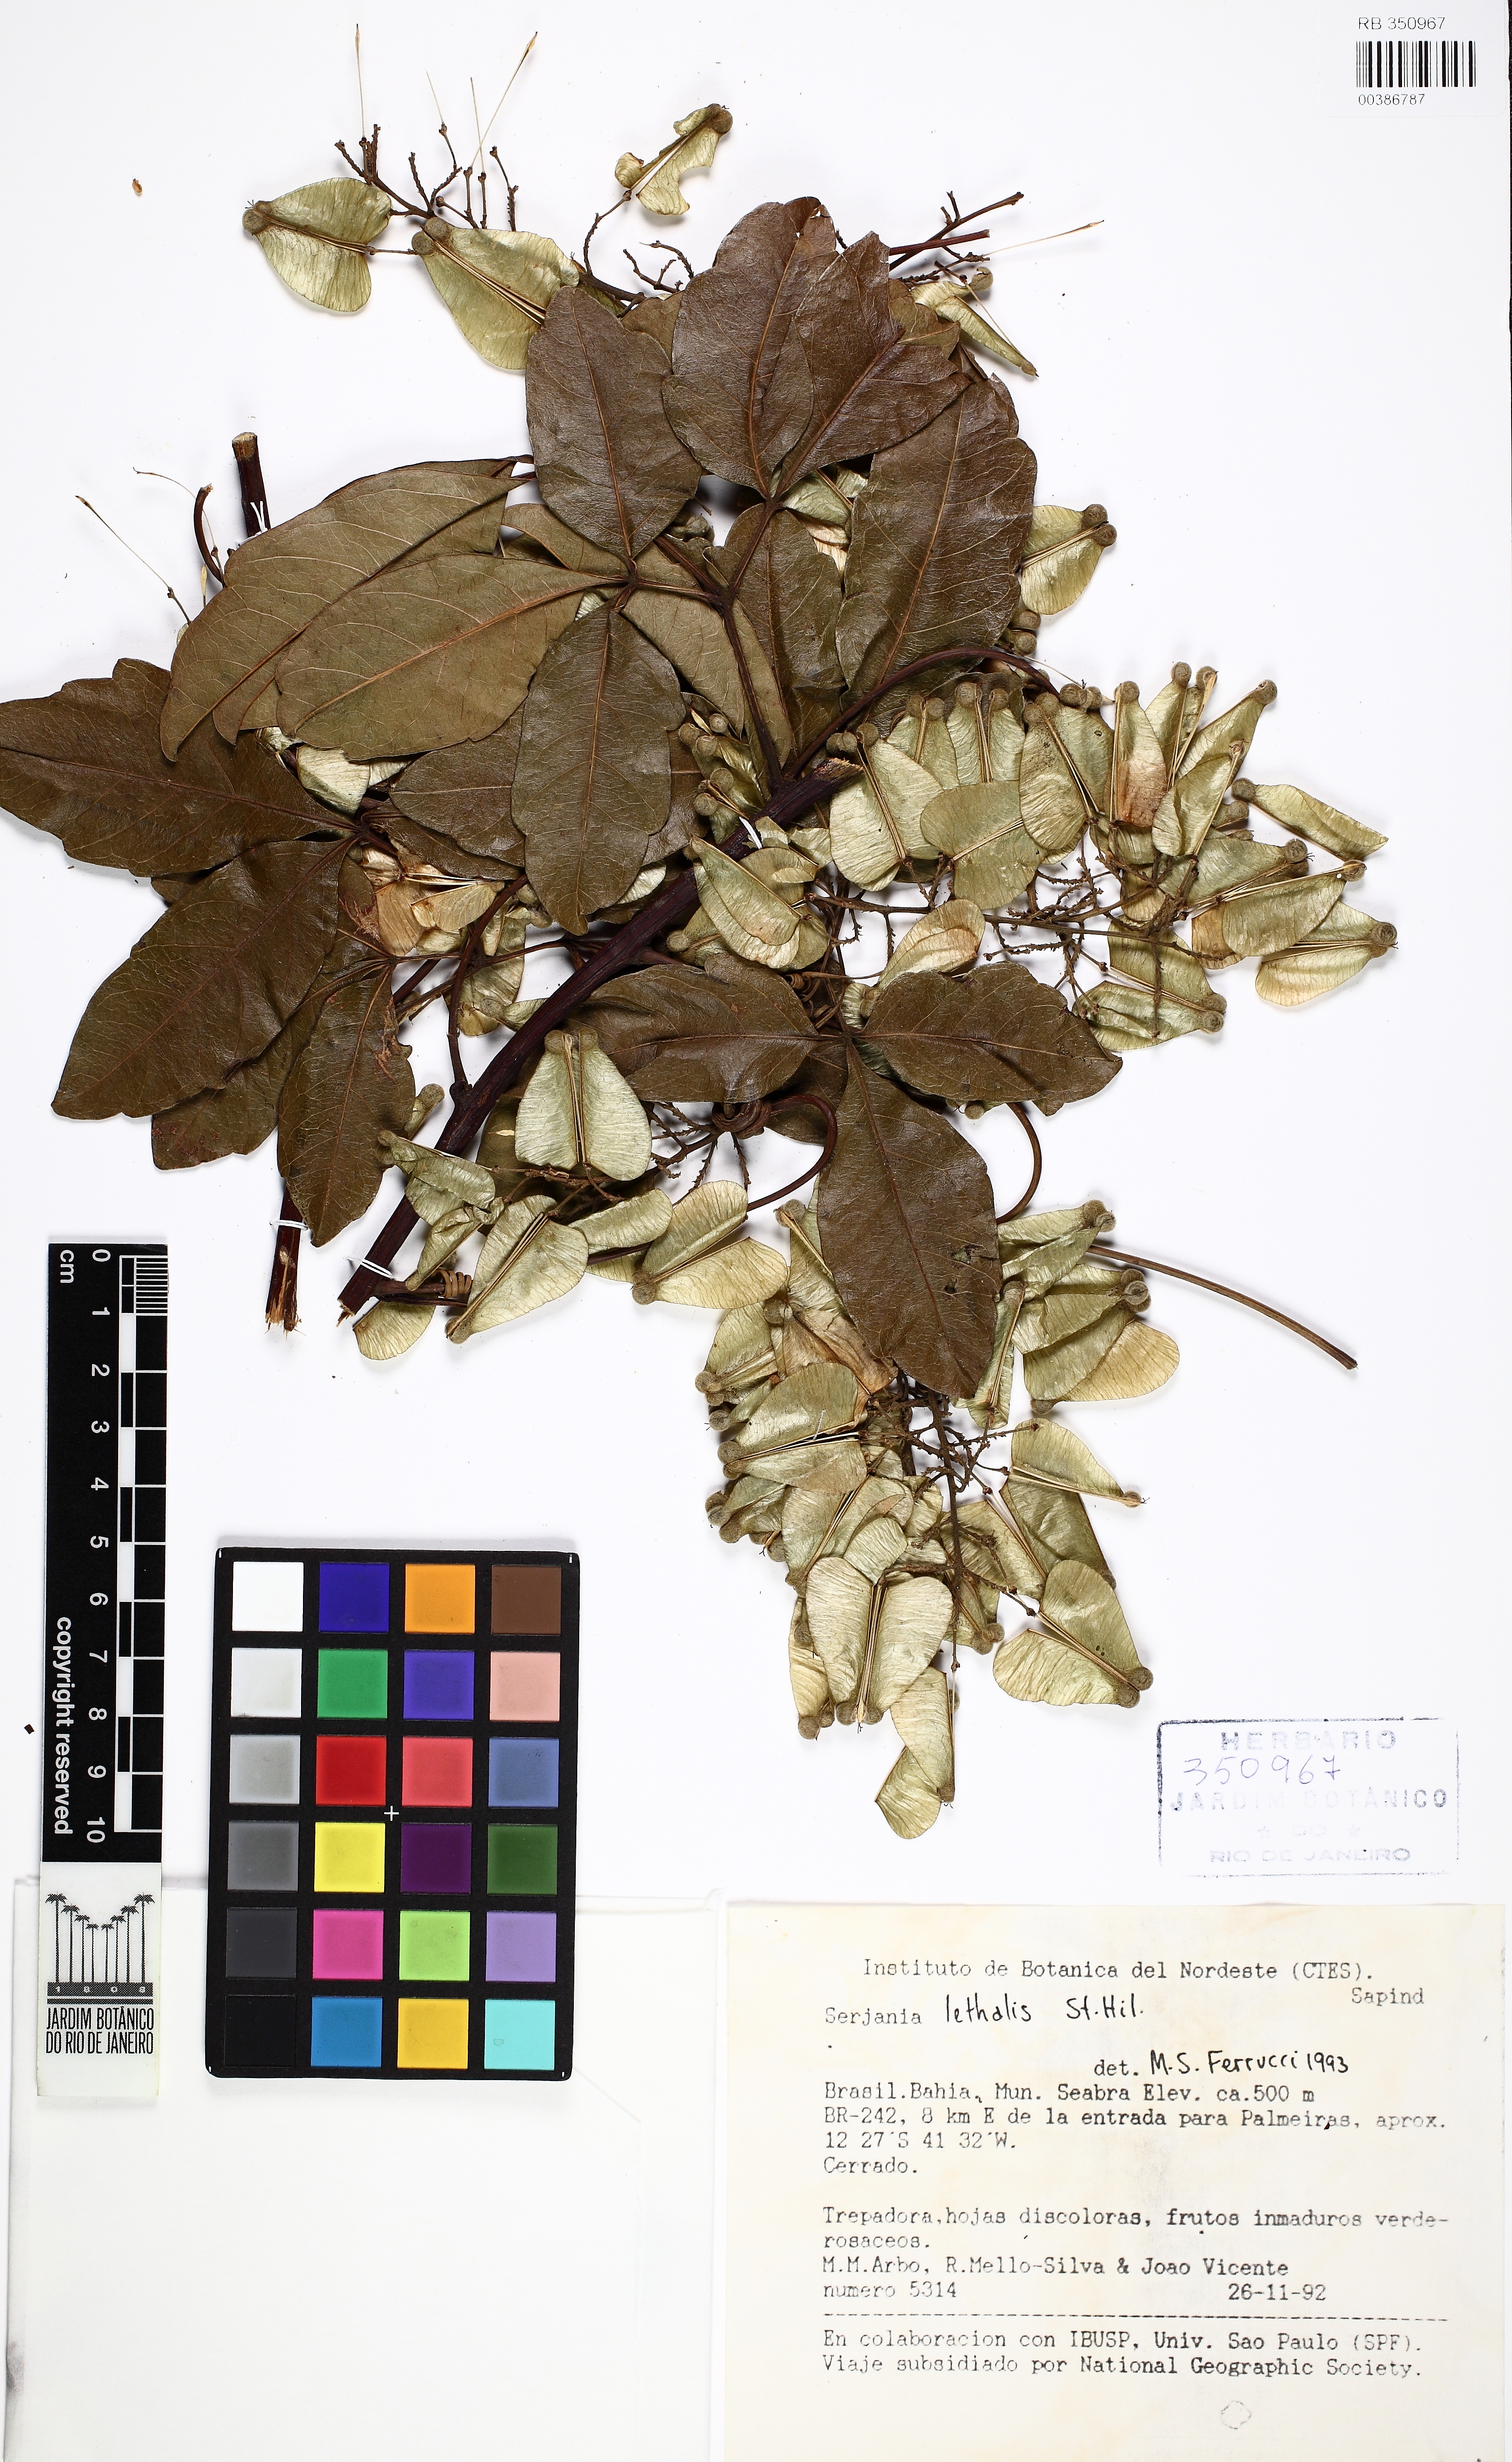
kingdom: Plantae
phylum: Tracheophyta
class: Magnoliopsida
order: Sapindales
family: Sapindaceae
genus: Serjania
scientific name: Serjania lethalis
